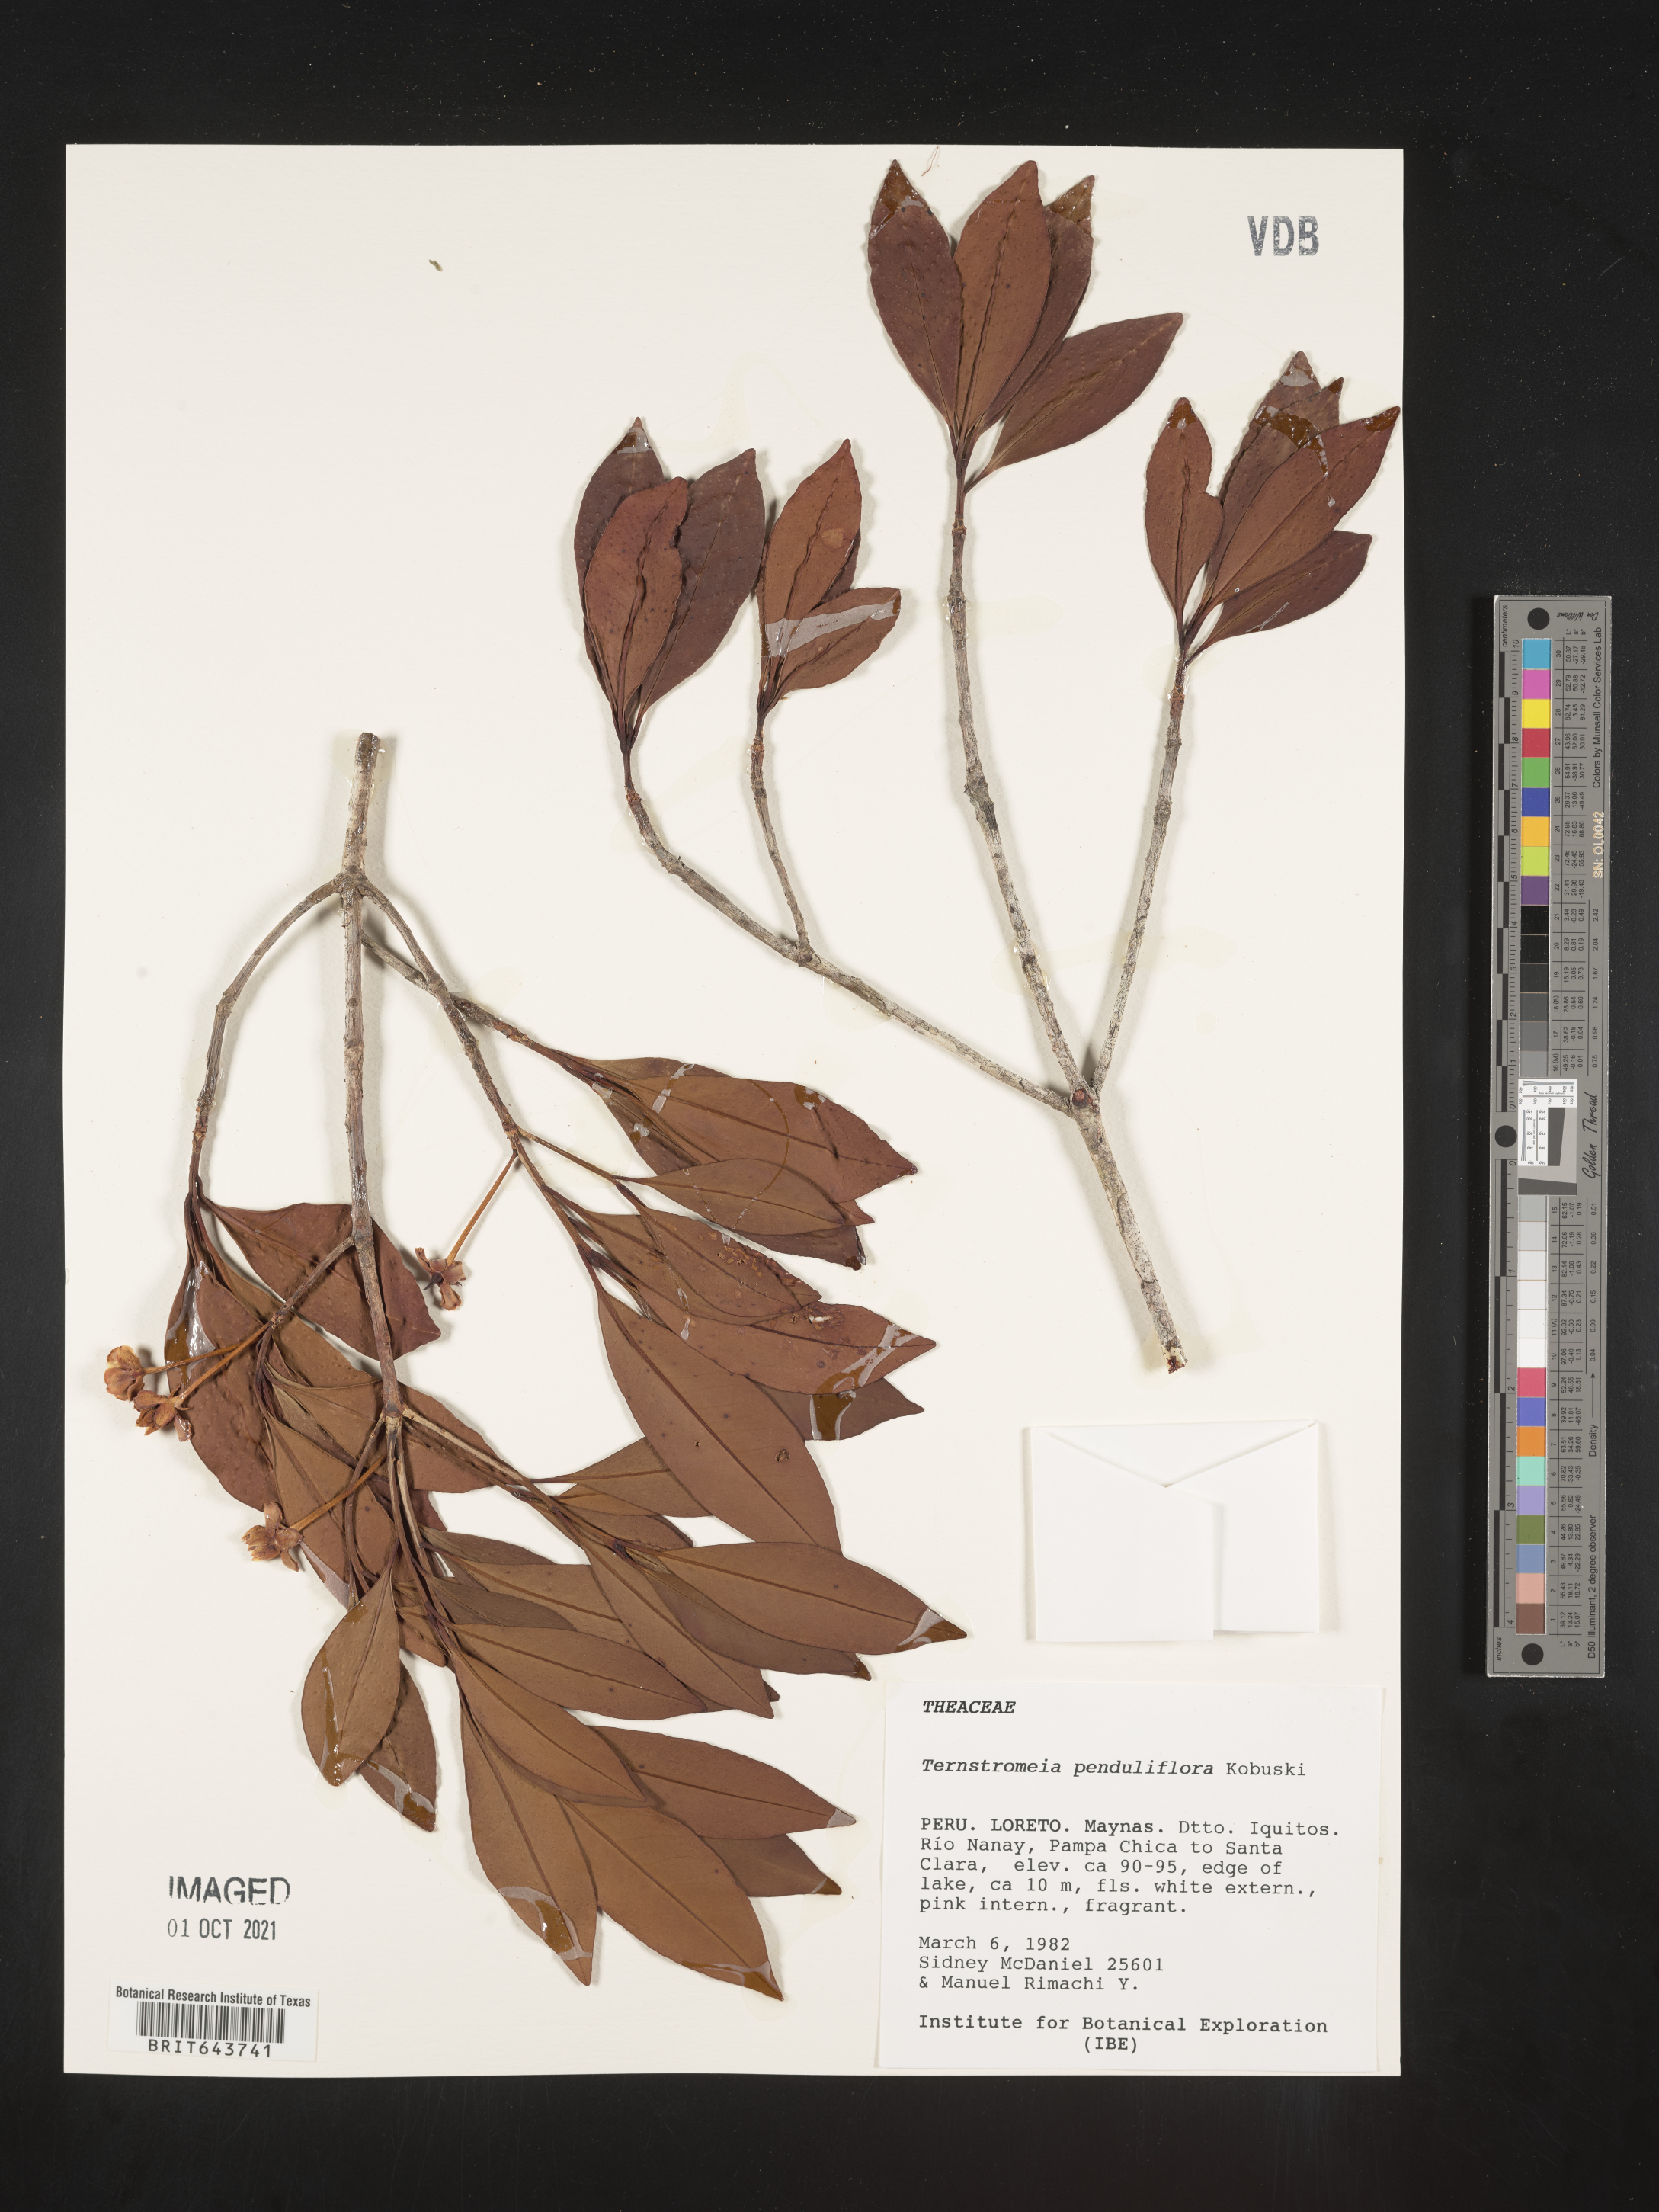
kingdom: Plantae
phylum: Tracheophyta
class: Magnoliopsida
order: Ericales
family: Pentaphylacaceae
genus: Ternstroemia
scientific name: Ternstroemia
